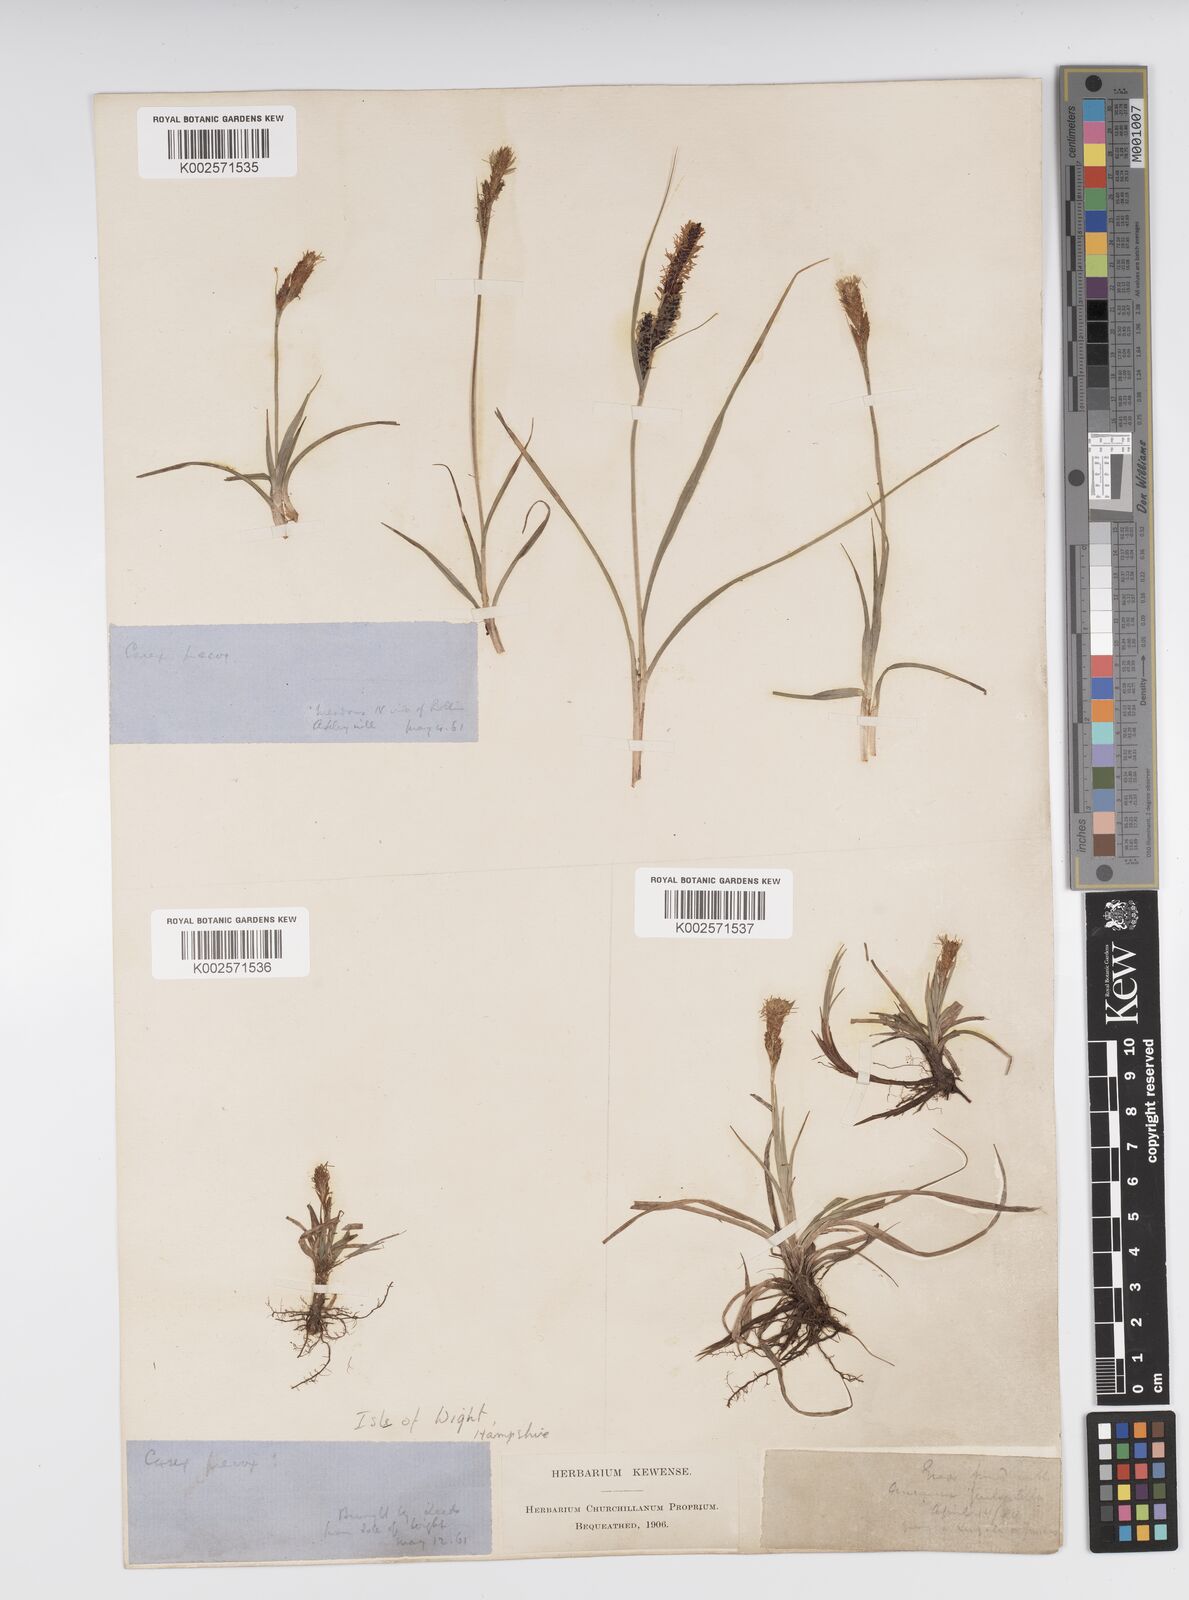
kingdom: Plantae
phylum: Tracheophyta
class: Liliopsida
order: Poales
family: Cyperaceae
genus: Carex
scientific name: Carex caryophyllea
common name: Spring sedge
